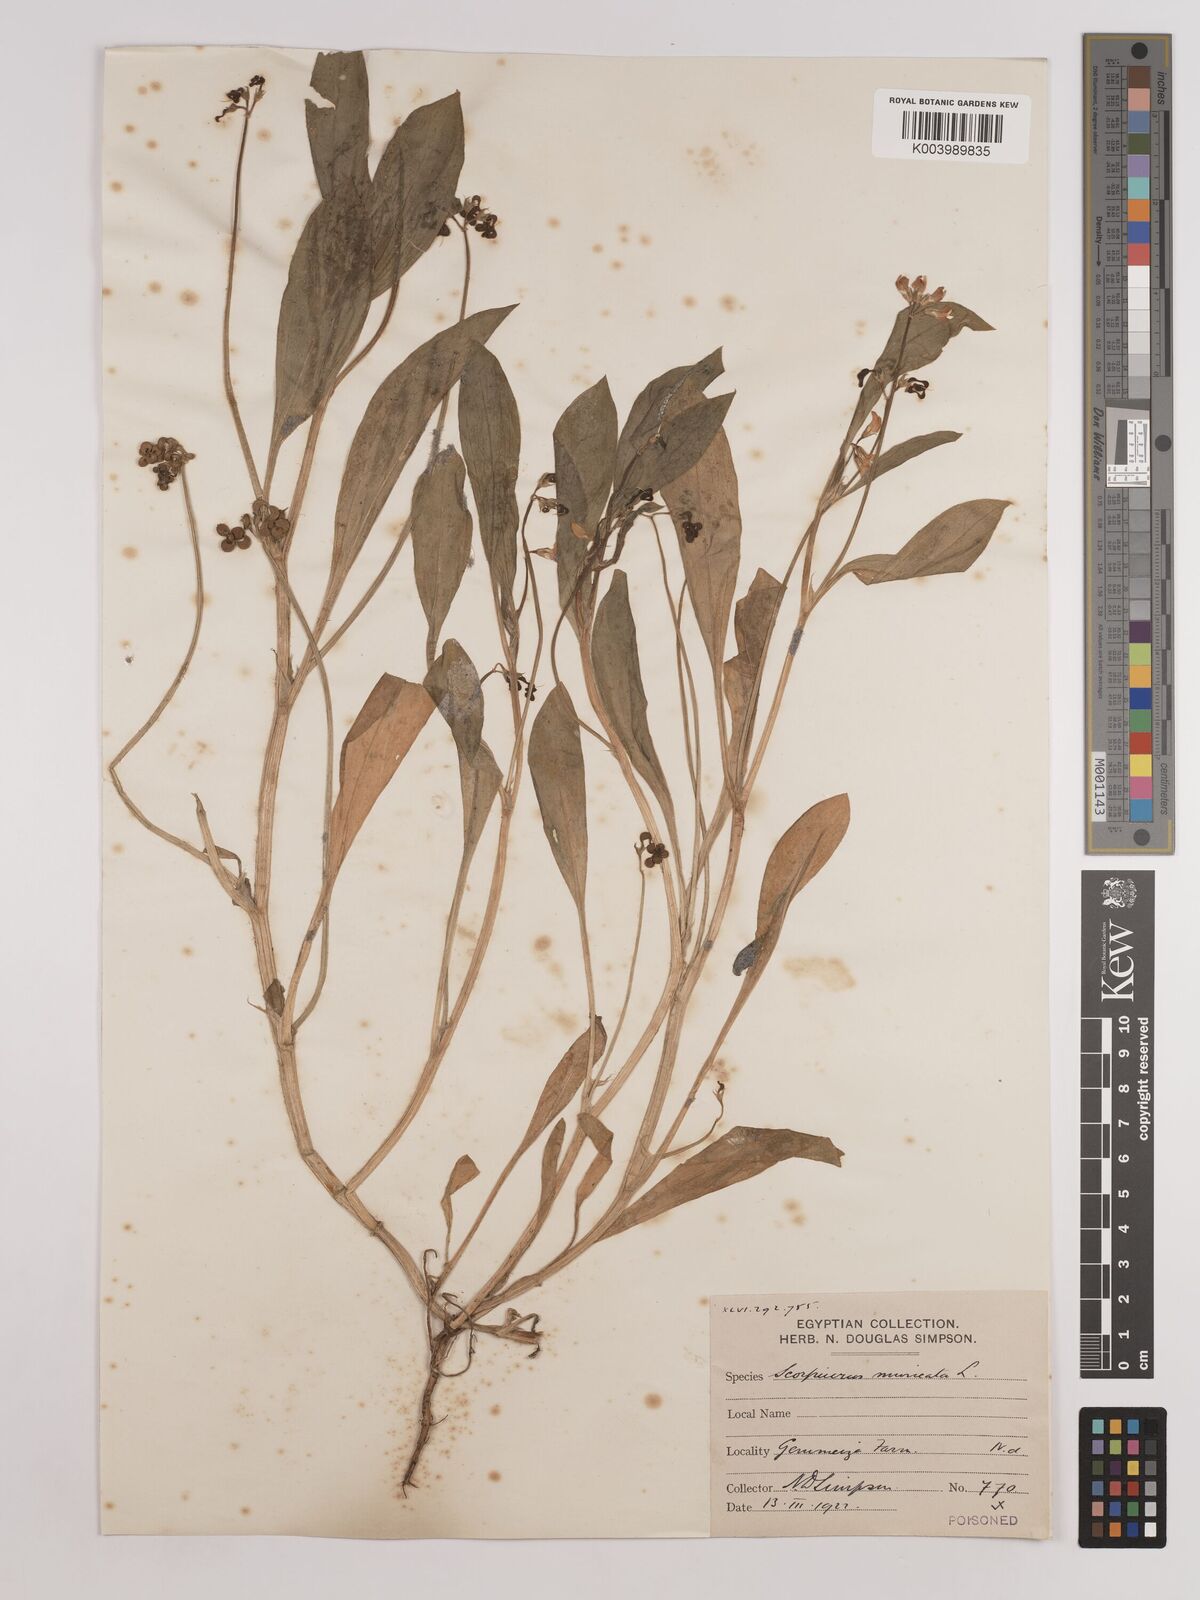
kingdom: Plantae
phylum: Tracheophyta
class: Magnoliopsida
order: Fabales
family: Fabaceae
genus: Scorpiurus
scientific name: Scorpiurus muricatus
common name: Caterpillar-plant
